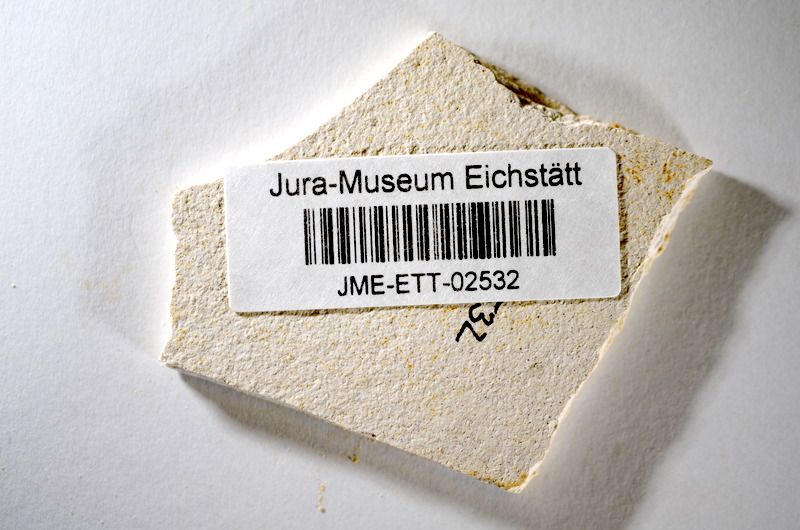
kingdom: Animalia
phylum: Chordata
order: Salmoniformes
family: Orthogonikleithridae
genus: Orthogonikleithrus
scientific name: Orthogonikleithrus hoelli
